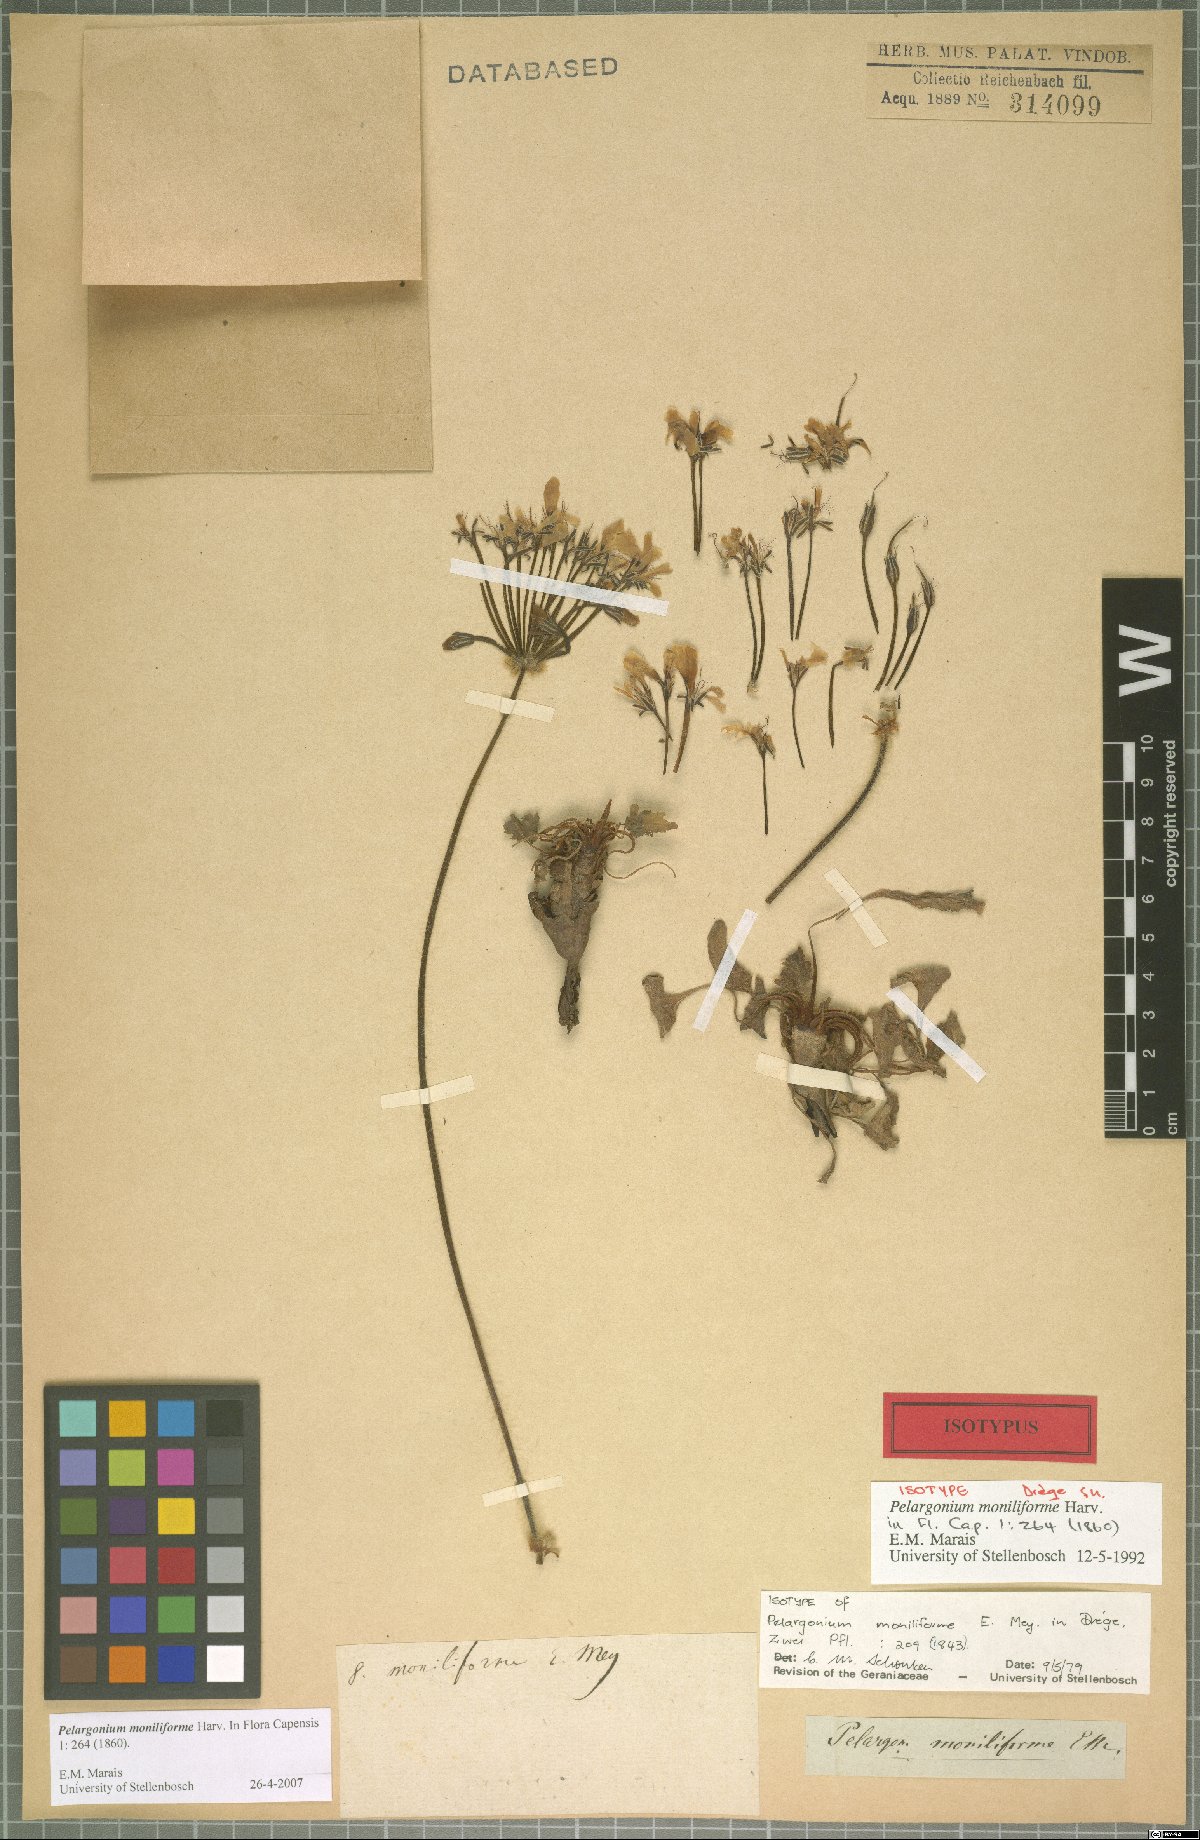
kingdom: Plantae
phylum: Tracheophyta
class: Magnoliopsida
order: Geraniales
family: Geraniaceae
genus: Pelargonium
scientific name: Pelargonium moniliforme
